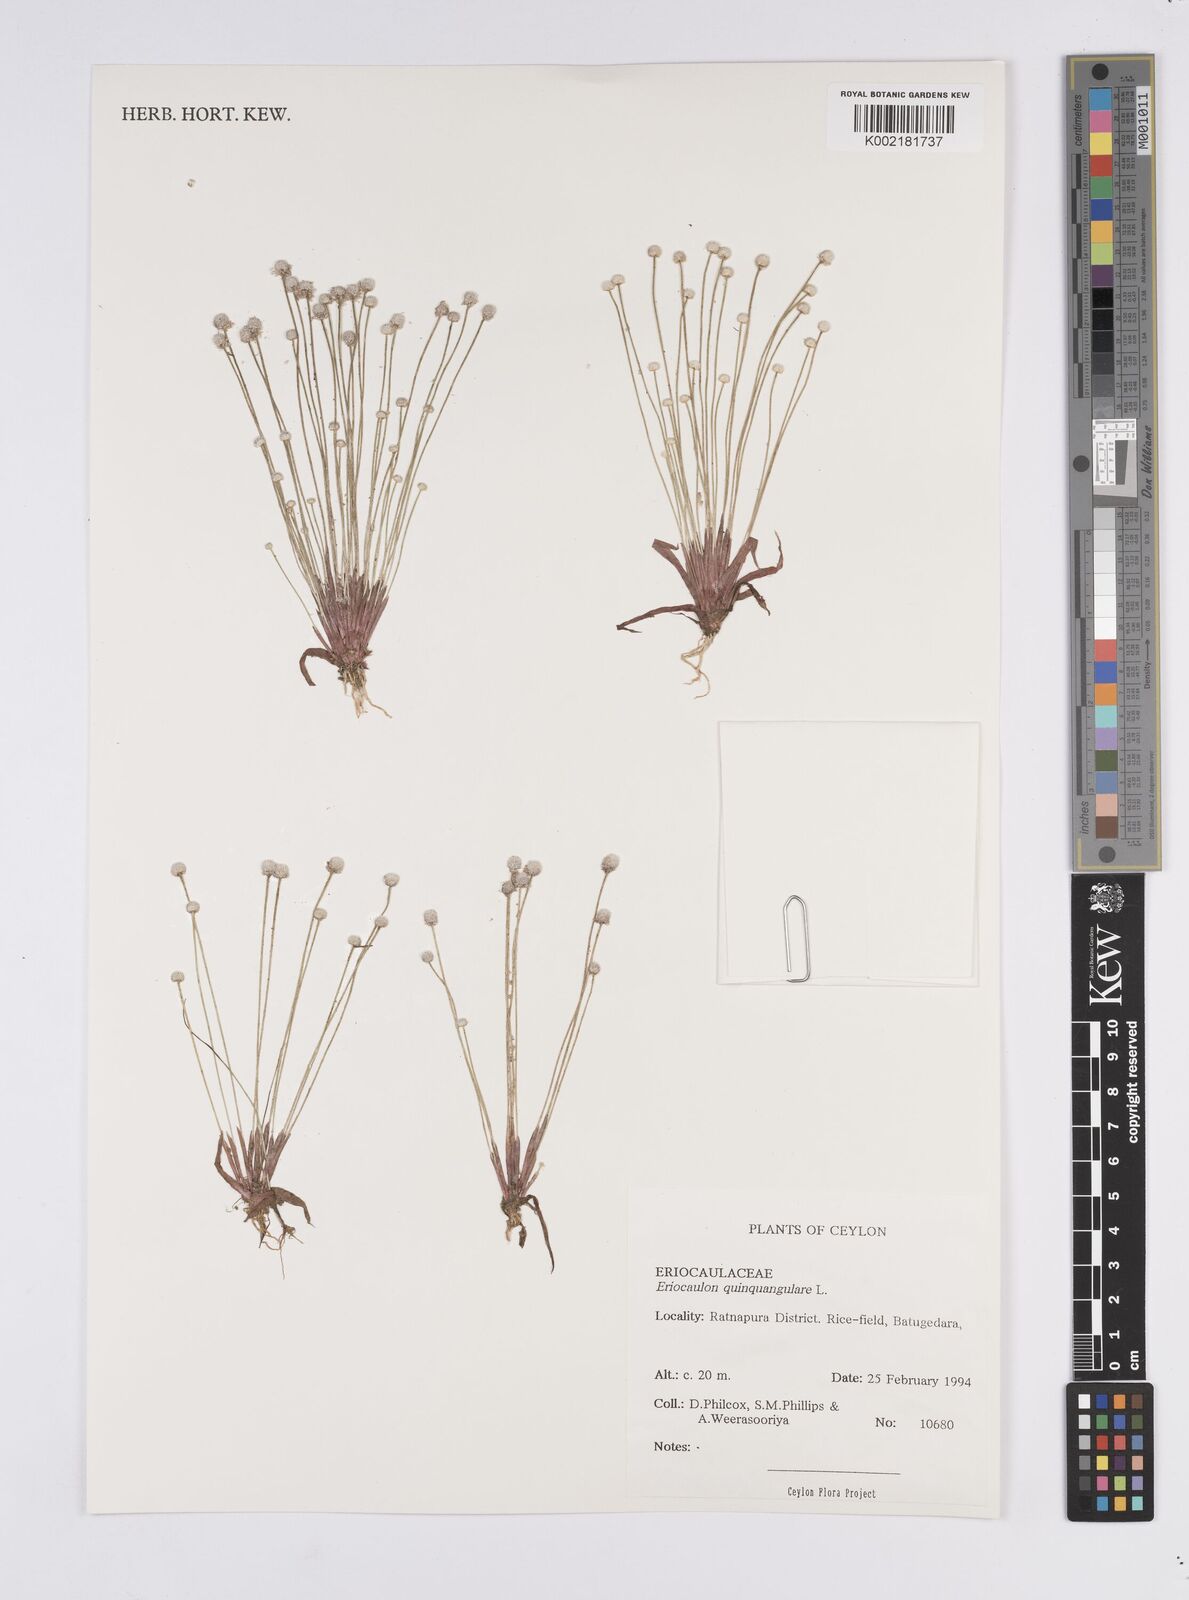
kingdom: Plantae
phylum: Tracheophyta
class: Liliopsida
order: Poales
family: Eriocaulaceae
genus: Eriocaulon
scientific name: Eriocaulon quinquangulare
